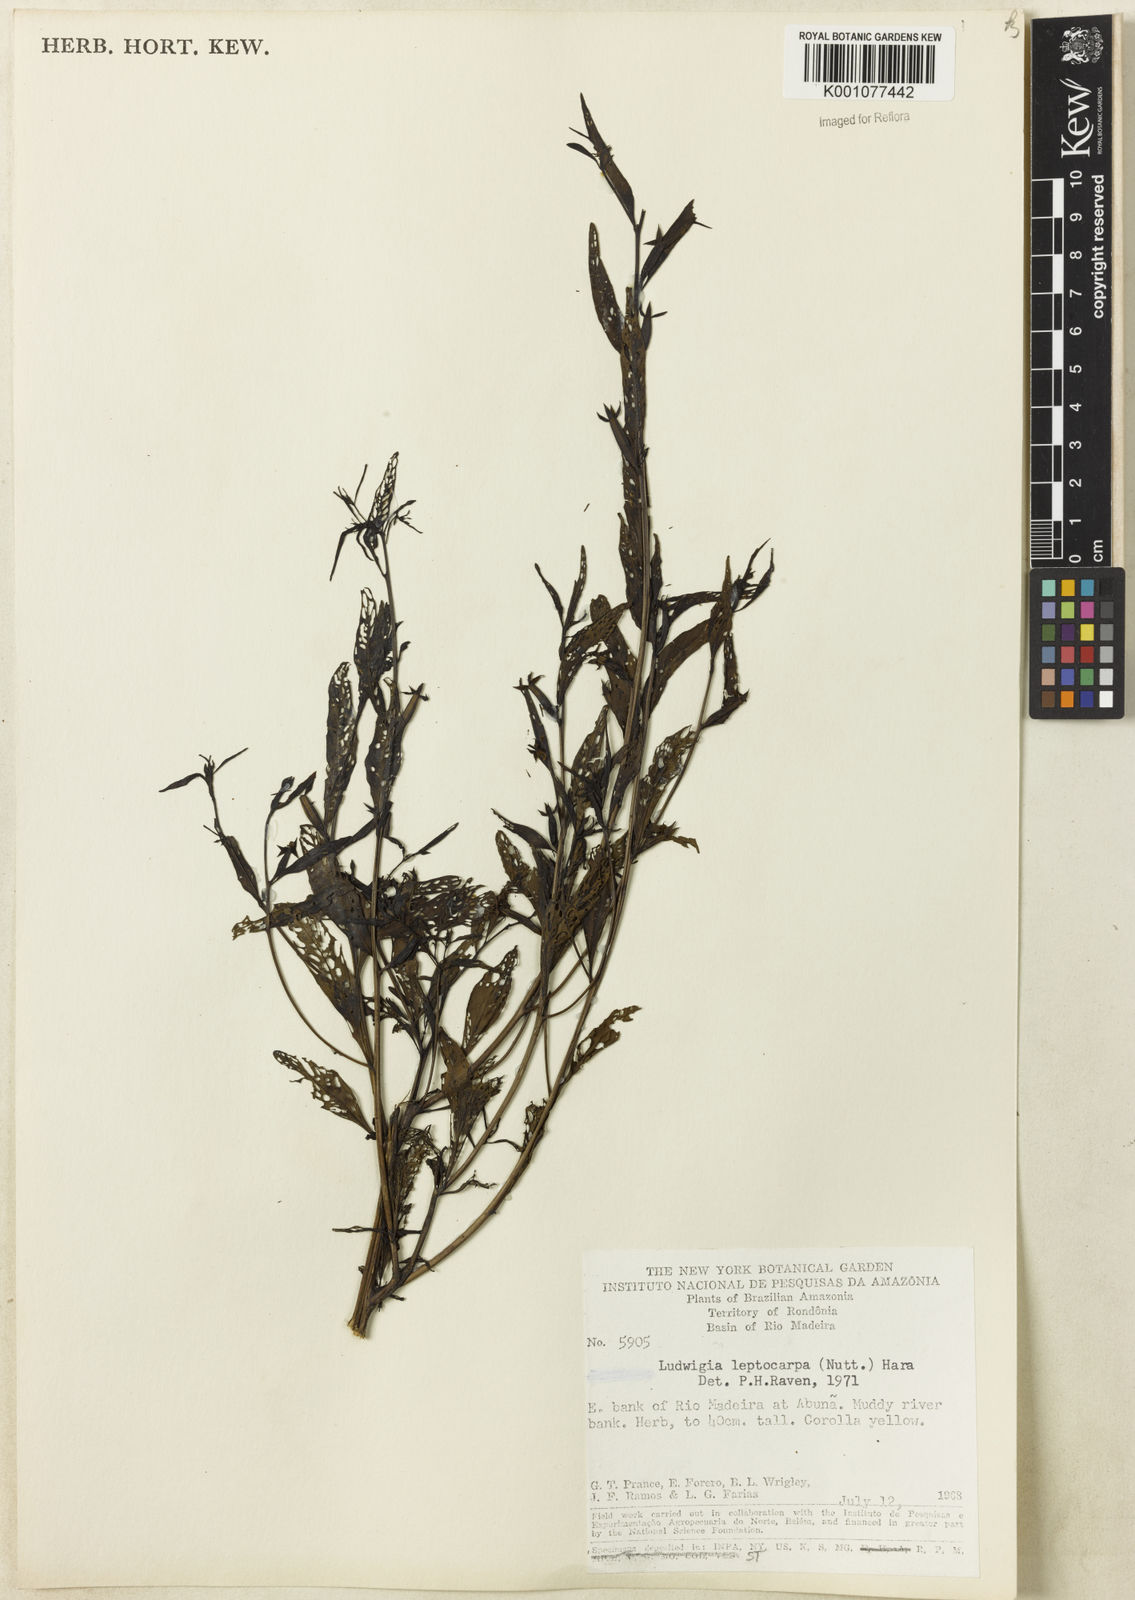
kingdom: Plantae
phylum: Tracheophyta
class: Magnoliopsida
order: Myrtales
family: Onagraceae
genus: Ludwigia
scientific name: Ludwigia leptocarpa
